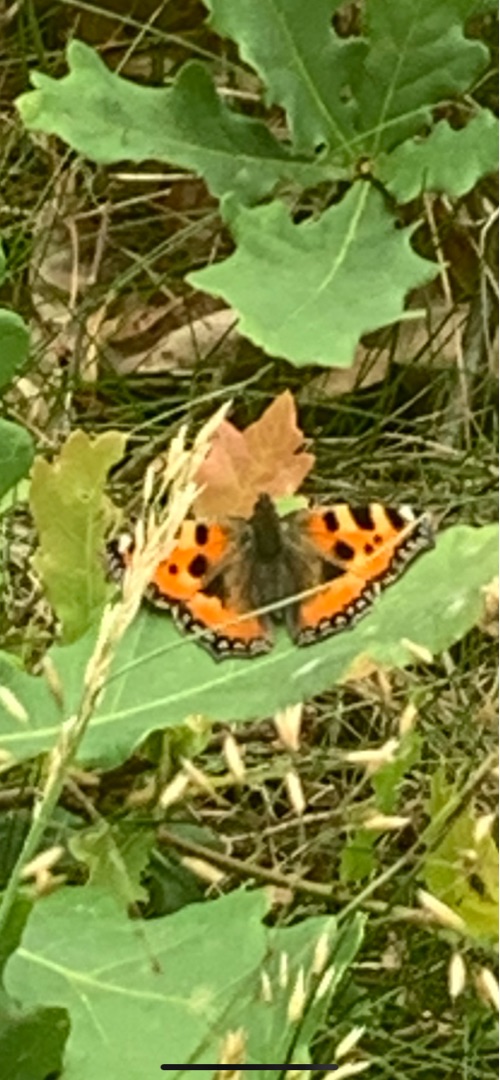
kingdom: Animalia
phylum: Arthropoda
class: Insecta
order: Lepidoptera
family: Nymphalidae
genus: Aglais
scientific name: Aglais urticae
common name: Nældens takvinge
